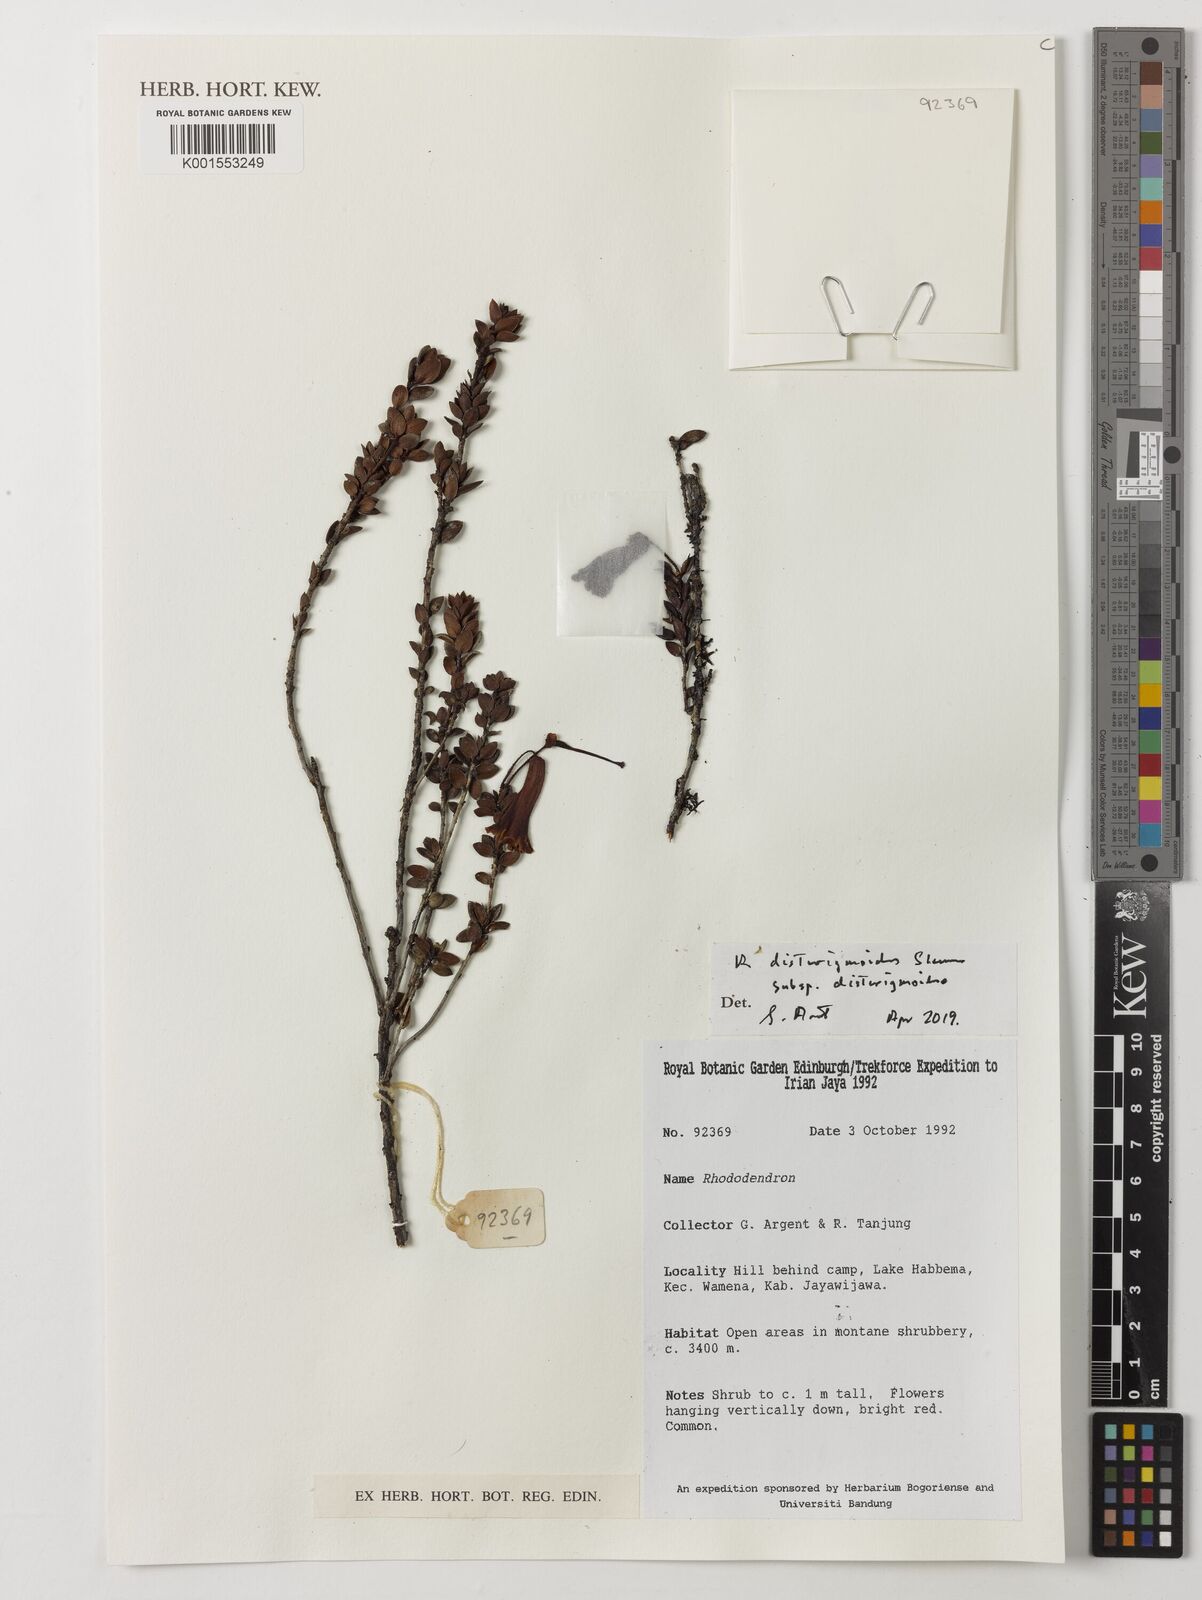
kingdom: Plantae
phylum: Tracheophyta
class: Magnoliopsida
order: Ericales
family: Ericaceae
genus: Rhododendron
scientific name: Rhododendron disterigmoides
